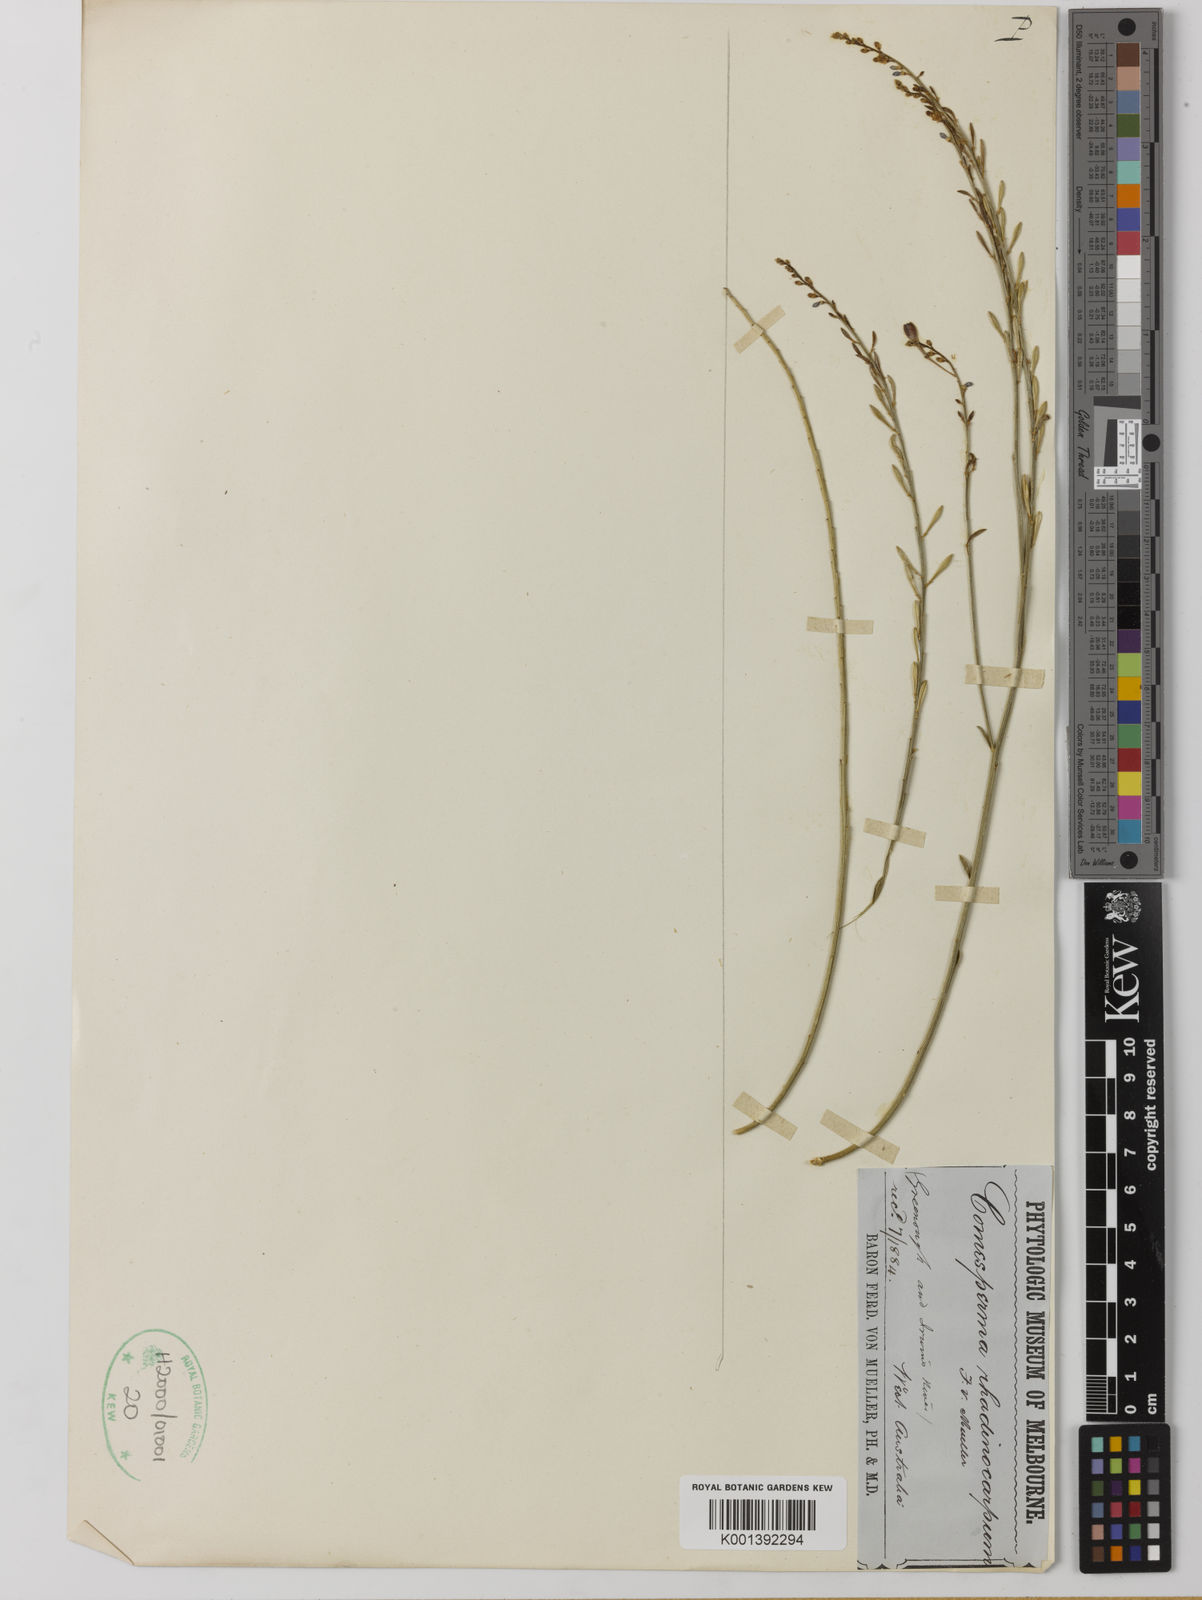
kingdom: Plantae
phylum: Tracheophyta
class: Magnoliopsida
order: Fabales
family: Polygalaceae
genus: Comesperma
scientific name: Comesperma rhadinocarpum
